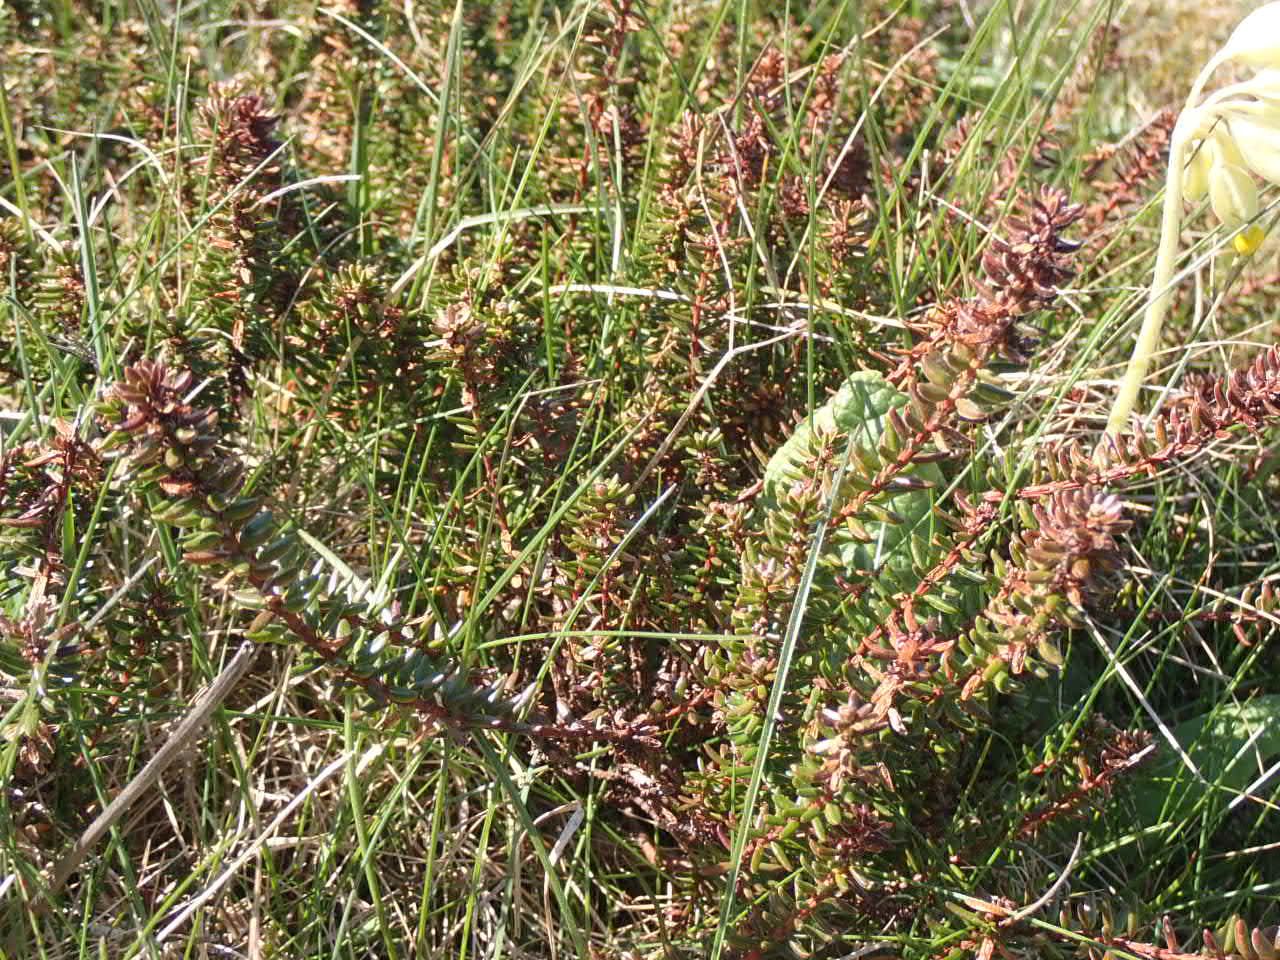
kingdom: Plantae
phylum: Tracheophyta
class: Magnoliopsida
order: Ericales
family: Ericaceae
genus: Empetrum
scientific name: Empetrum nigrum
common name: Revling
